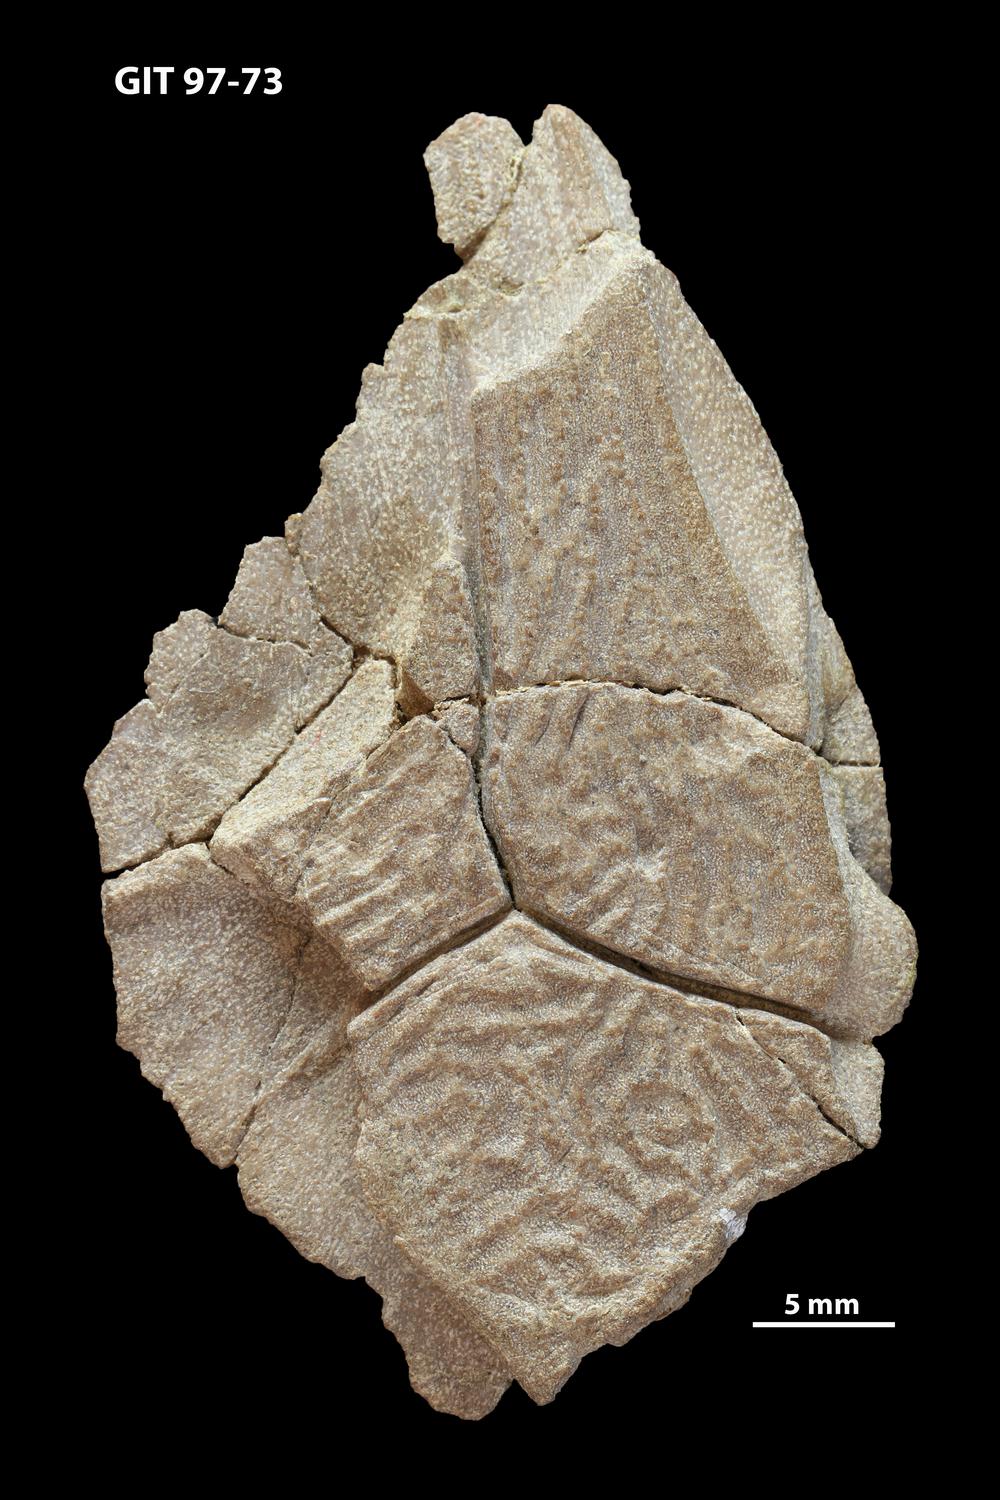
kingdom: Animalia
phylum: Chordata
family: Holonematidae
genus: Holonema
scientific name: Holonema
